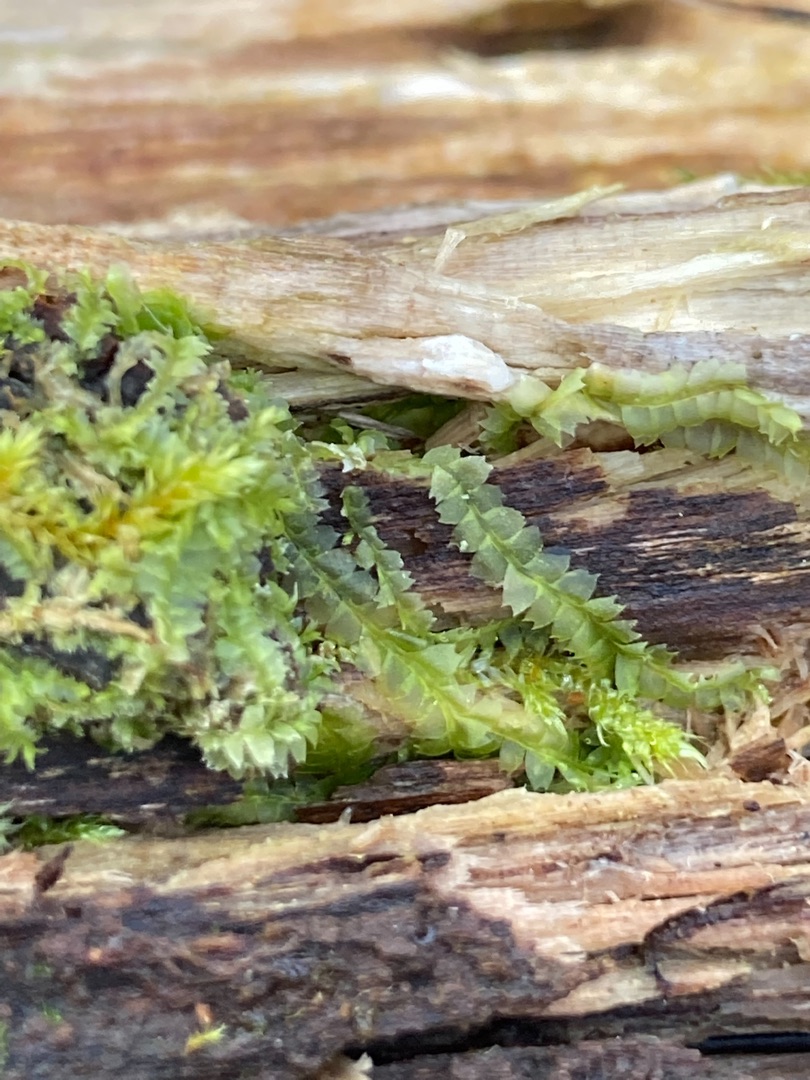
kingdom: Plantae
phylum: Marchantiophyta
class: Jungermanniopsida
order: Jungermanniales
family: Lophocoleaceae
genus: Lophocolea
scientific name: Lophocolea heterophylla
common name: Forskelligbladet kamsvøb
